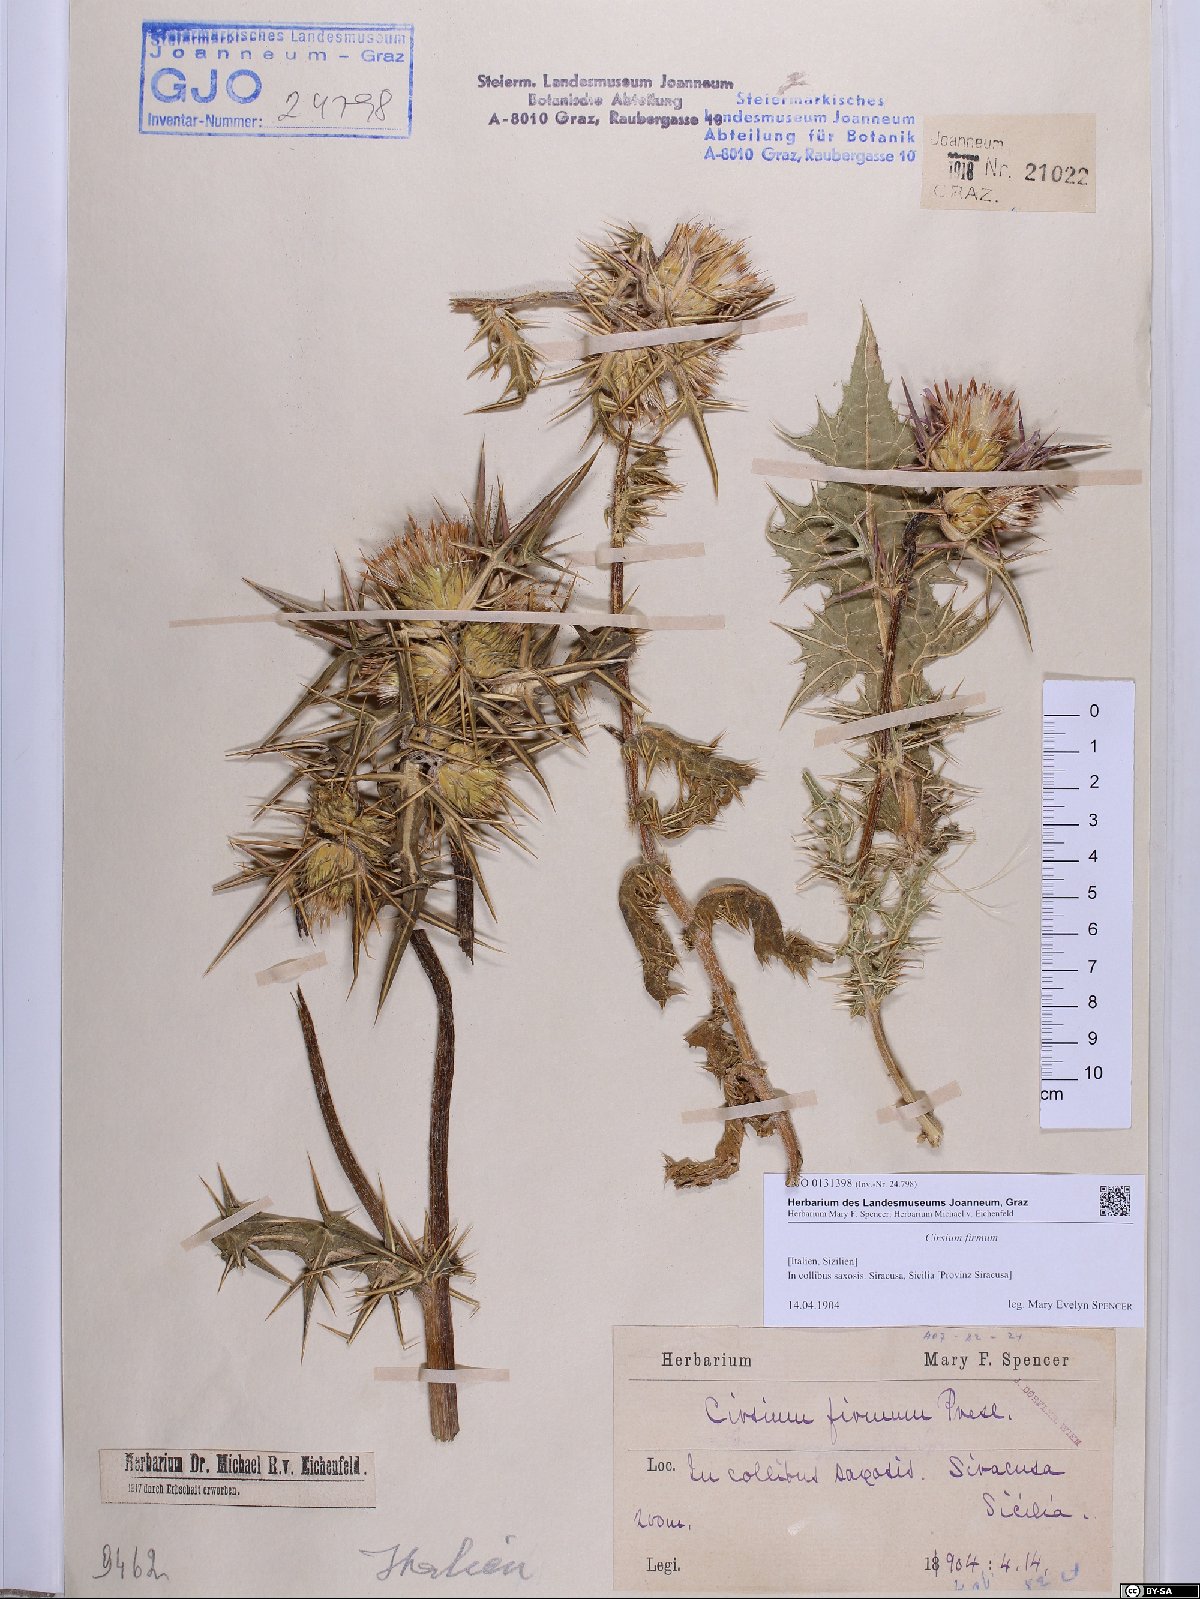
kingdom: Plantae
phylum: Tracheophyta
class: Magnoliopsida
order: Asterales
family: Asteraceae
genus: Notobasis
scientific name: Notobasis syriaca
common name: Syrian thistle
